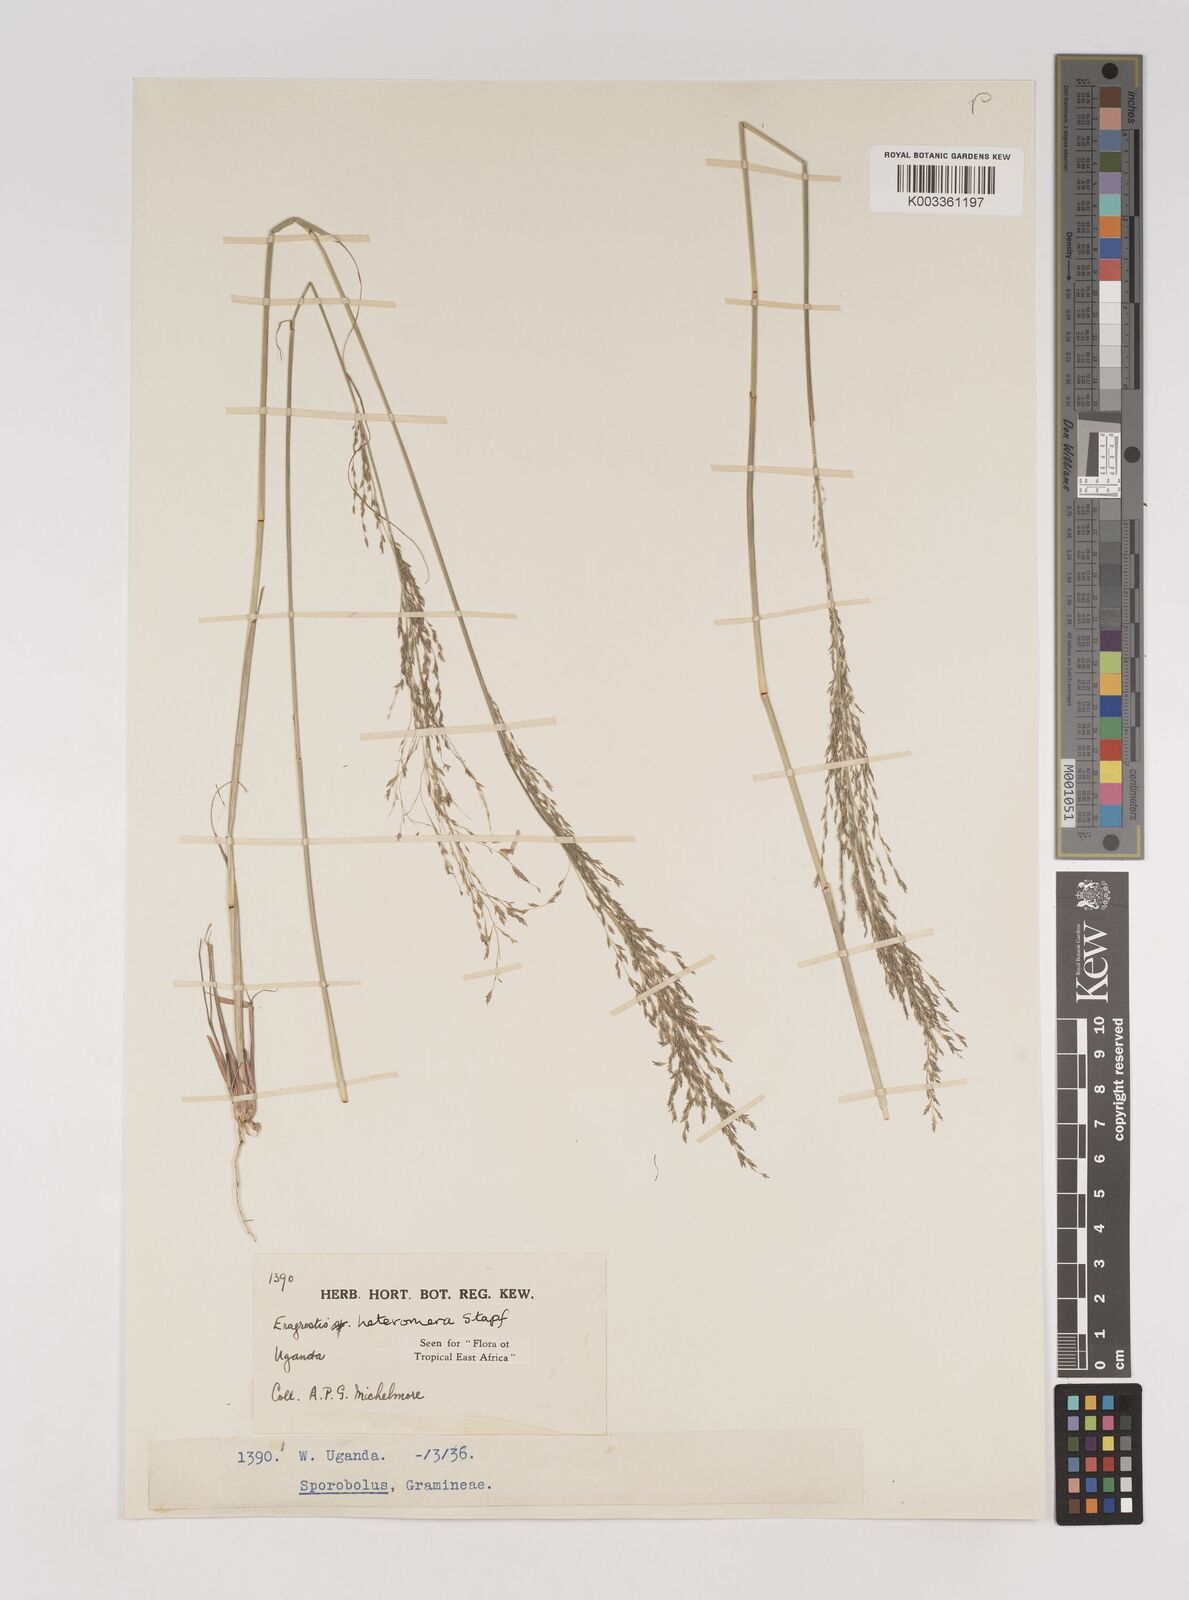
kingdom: Plantae
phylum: Tracheophyta
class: Liliopsida
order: Poales
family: Poaceae
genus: Eragrostis
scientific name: Eragrostis heteromera
